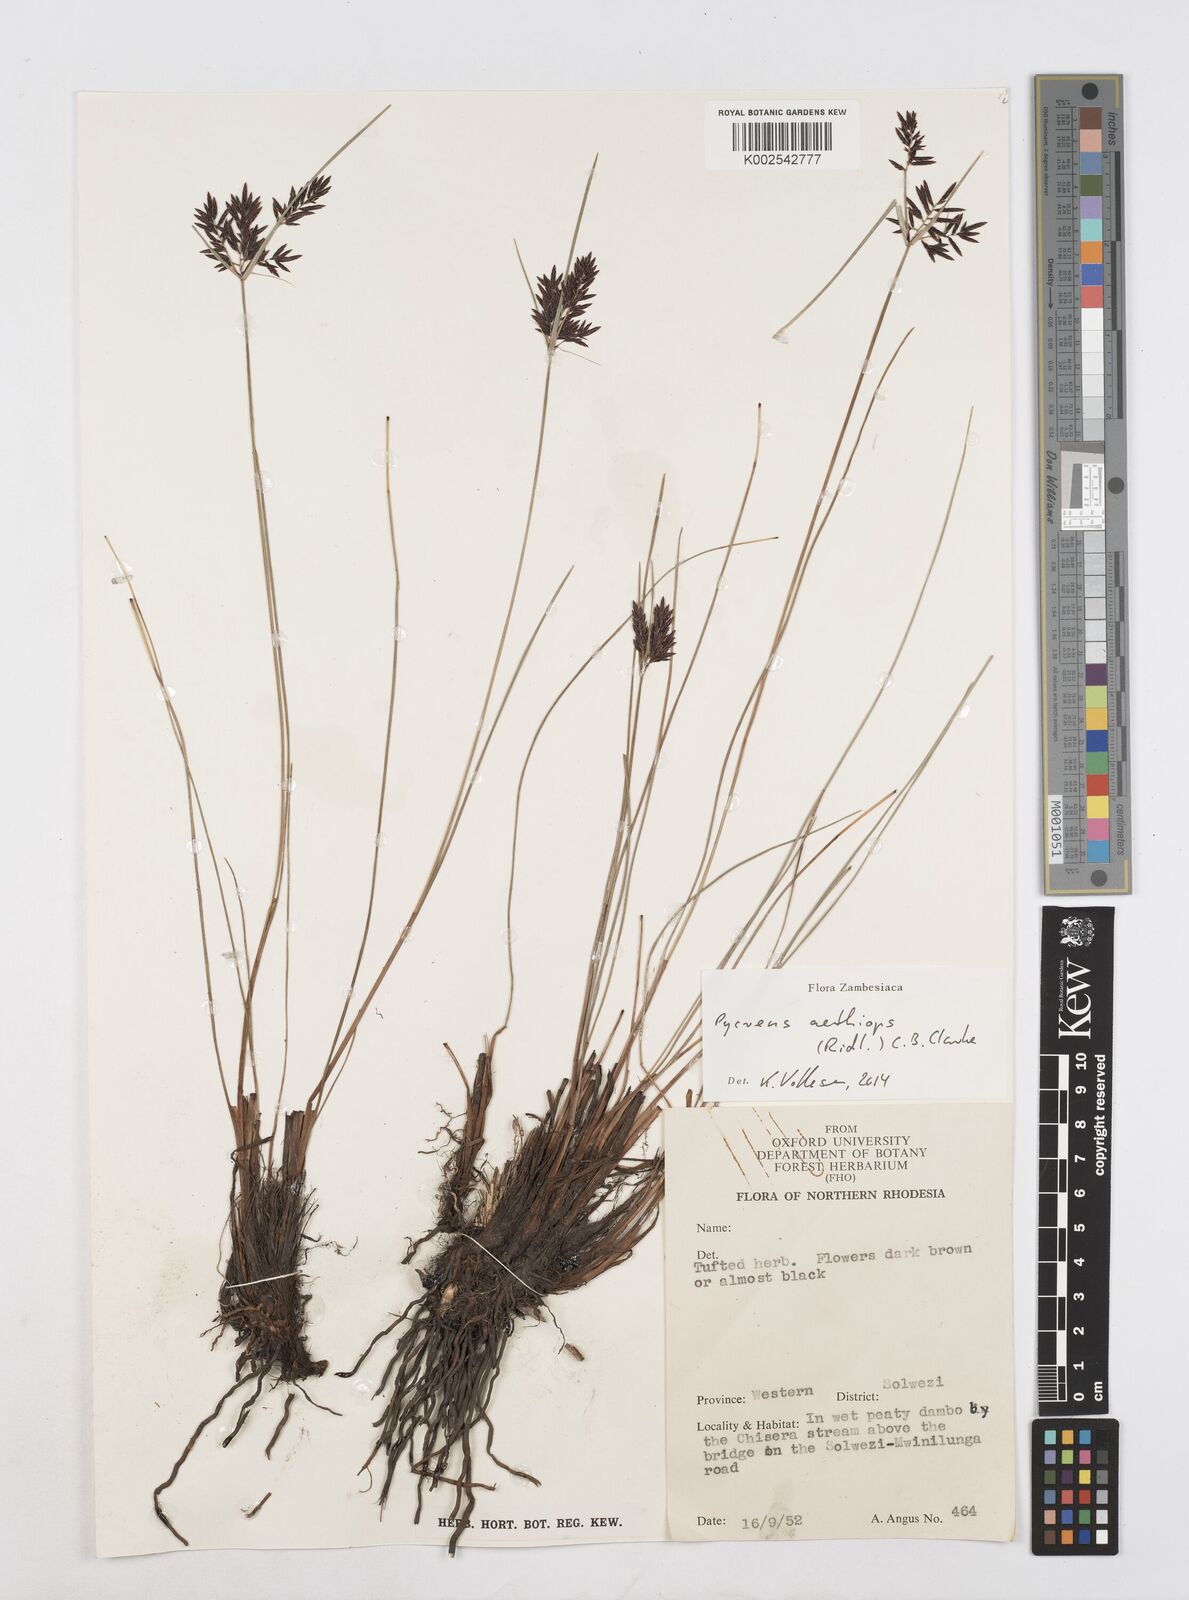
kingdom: Plantae
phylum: Tracheophyta
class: Liliopsida
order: Poales
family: Cyperaceae
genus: Cyperus
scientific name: Cyperus aethiops
